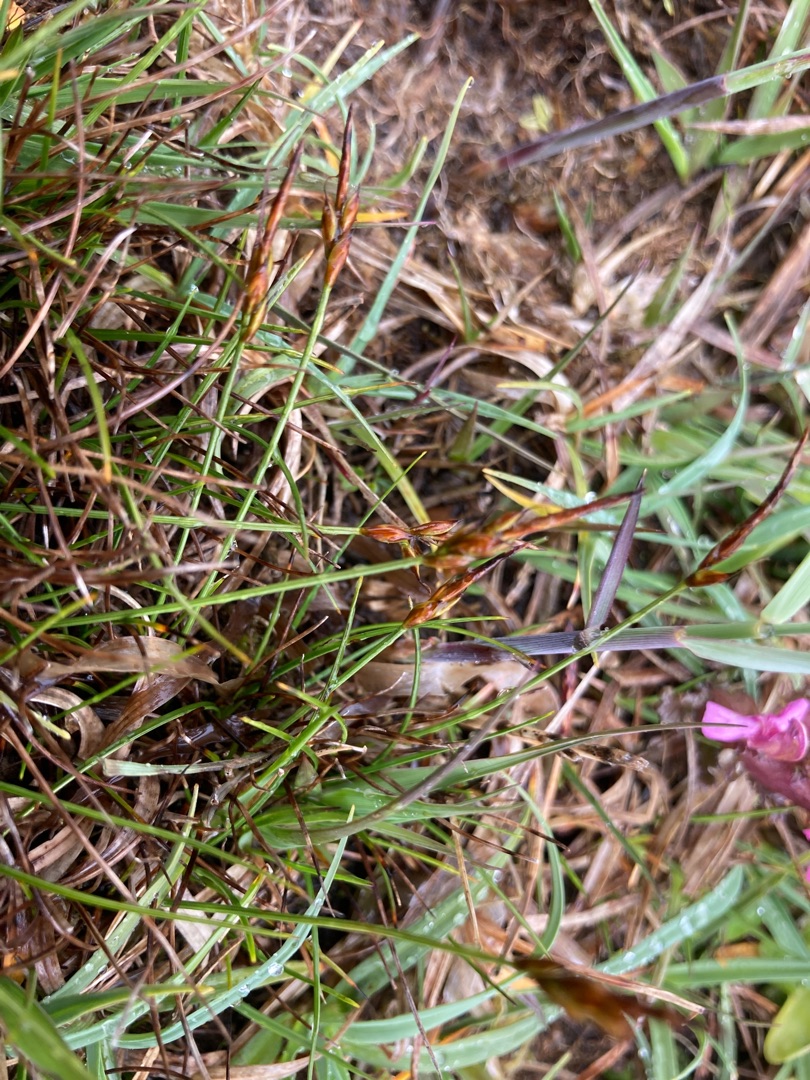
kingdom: Plantae
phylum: Tracheophyta
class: Liliopsida
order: Poales
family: Cyperaceae
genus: Carex
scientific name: Carex pulicaris
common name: Loppe-star
